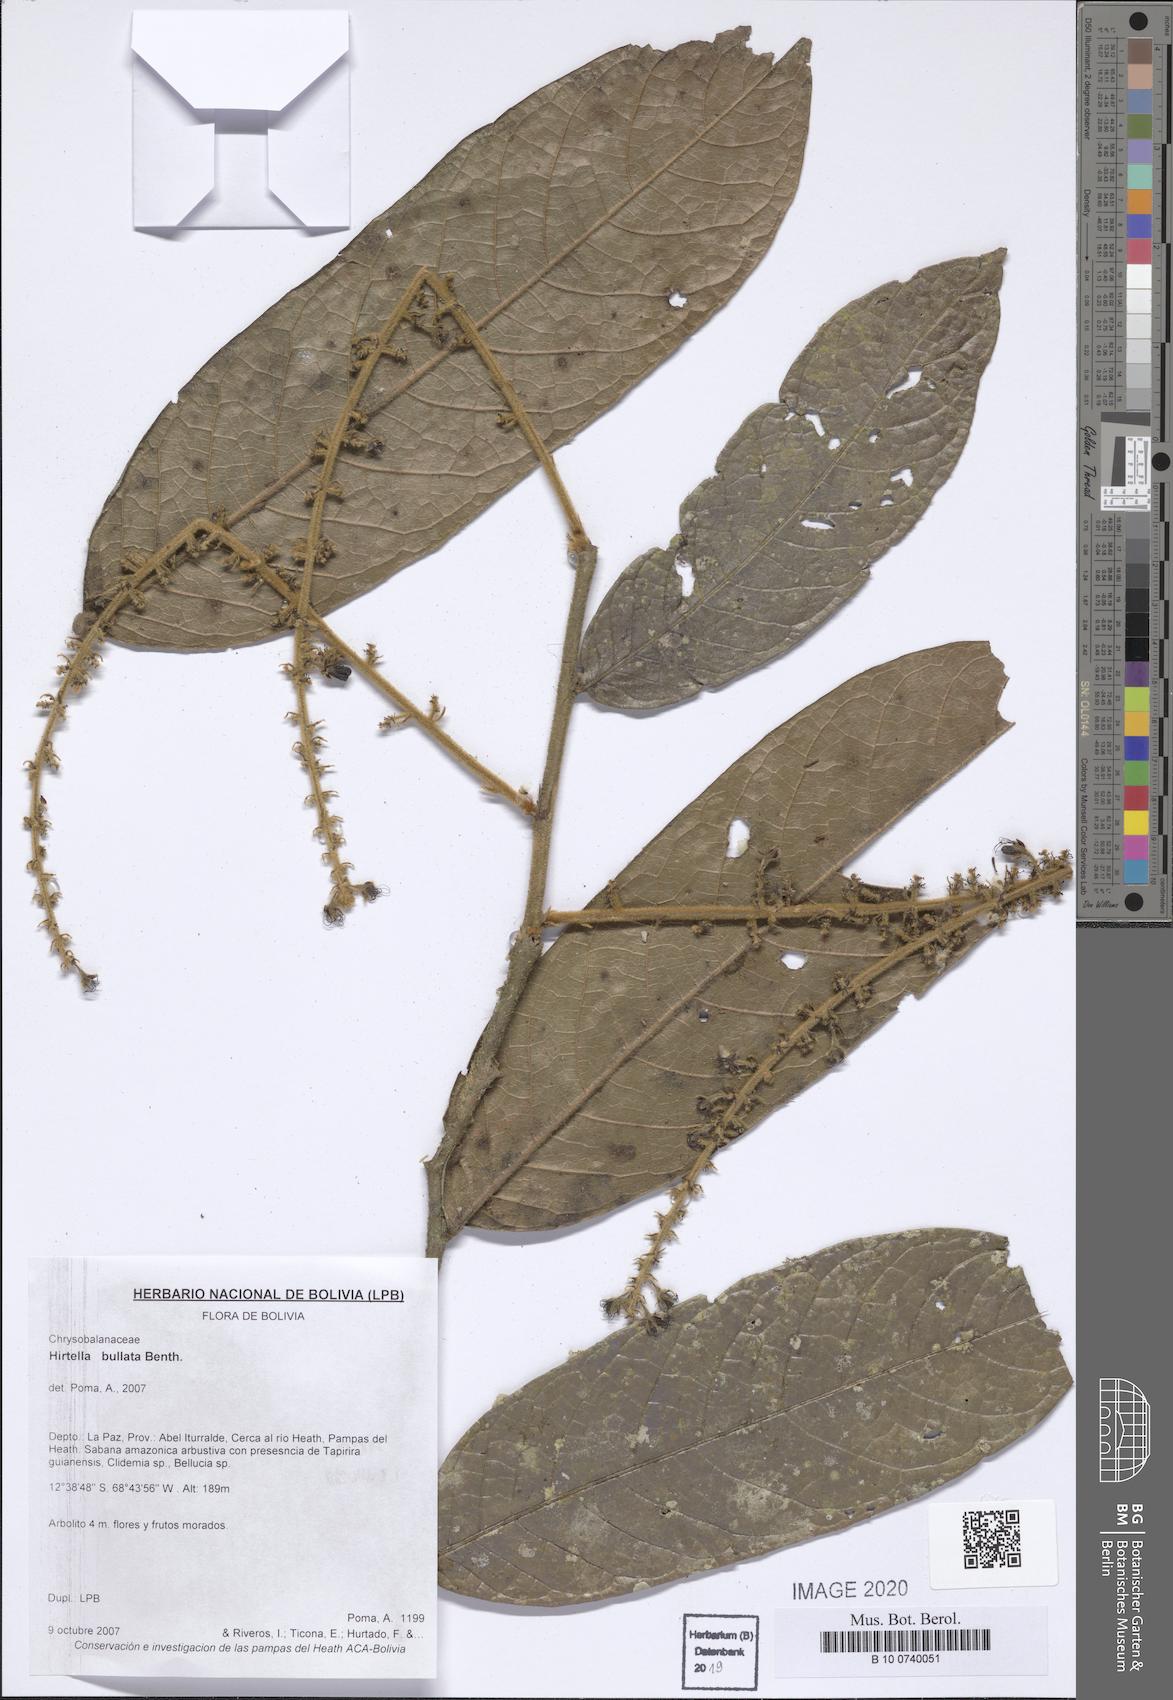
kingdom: Plantae
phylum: Tracheophyta
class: Magnoliopsida
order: Malpighiales
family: Chrysobalanaceae
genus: Hirtella
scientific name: Hirtella bullata
